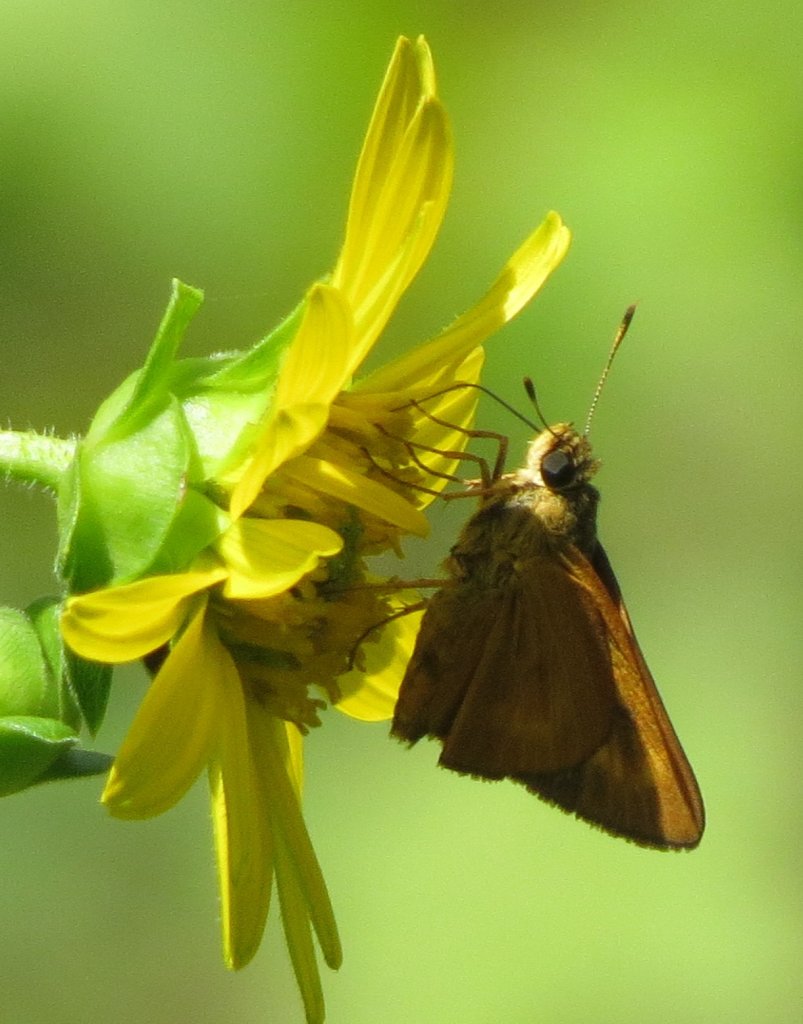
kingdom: Animalia
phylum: Arthropoda
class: Insecta
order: Lepidoptera
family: Hesperiidae
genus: Problema
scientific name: Problema byssus
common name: Byssus Skipper
